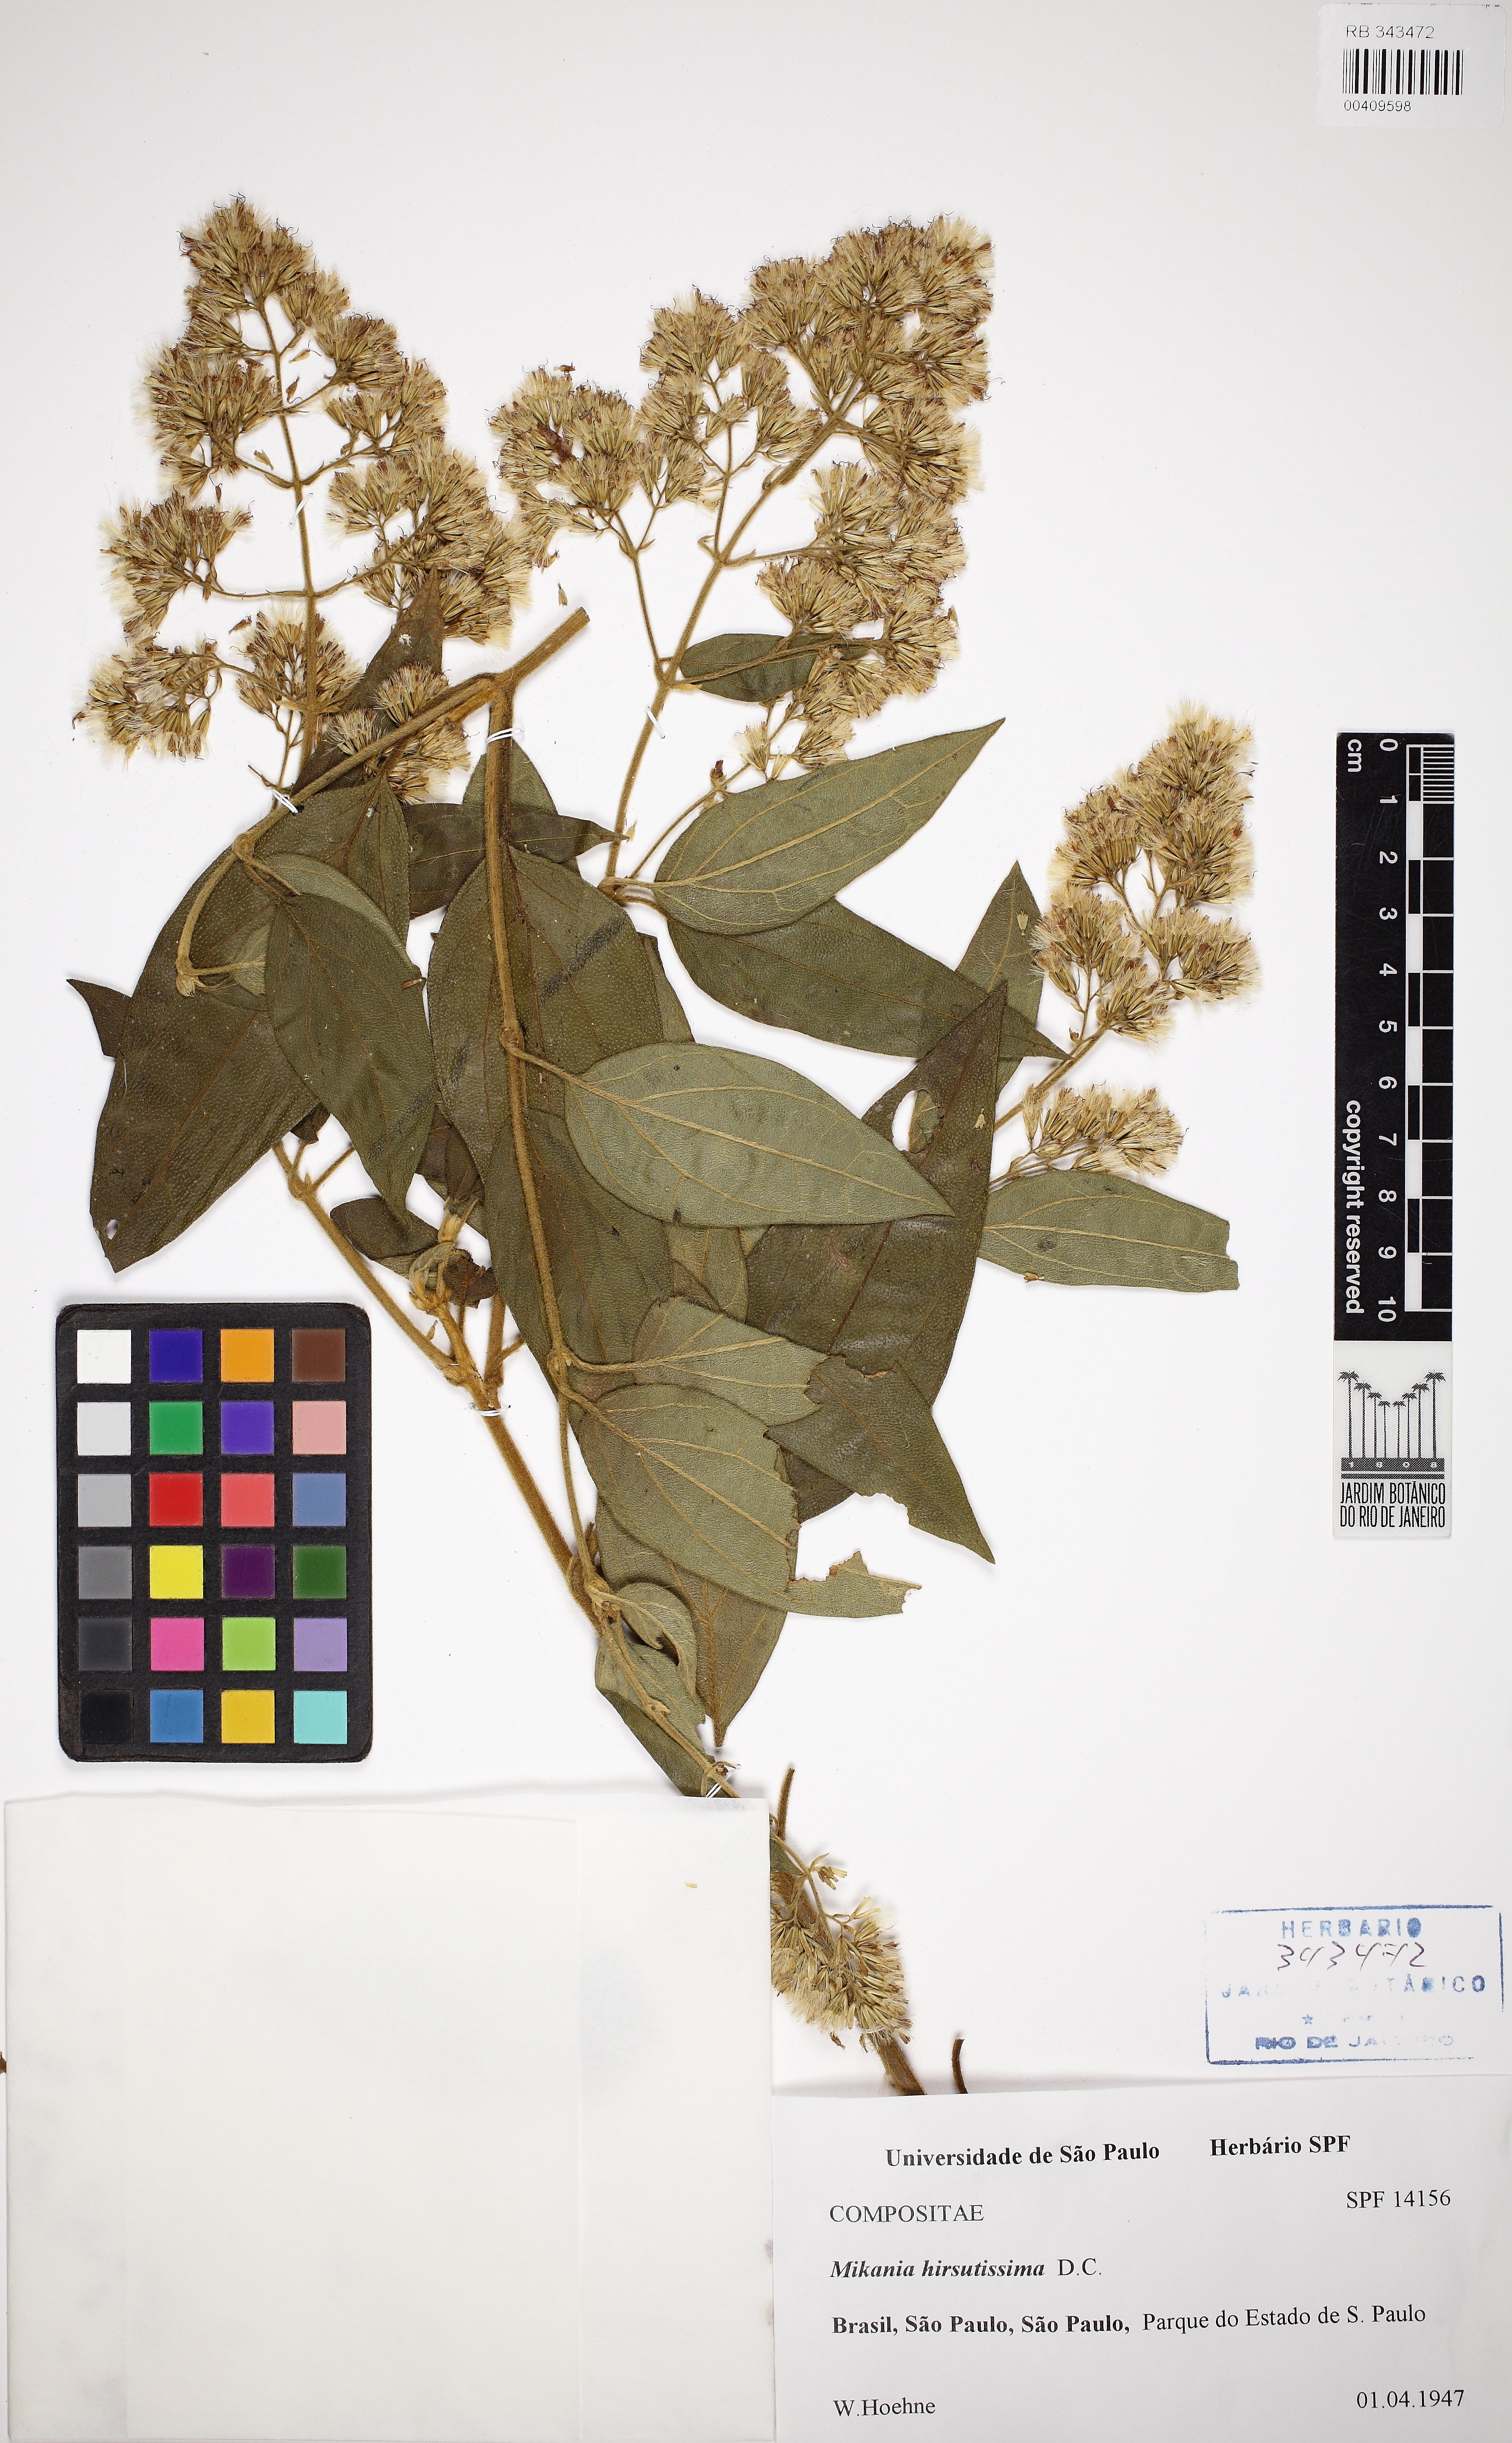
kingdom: Plantae
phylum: Tracheophyta
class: Magnoliopsida
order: Asterales
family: Asteraceae
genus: Mikania
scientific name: Mikania banisteriae
